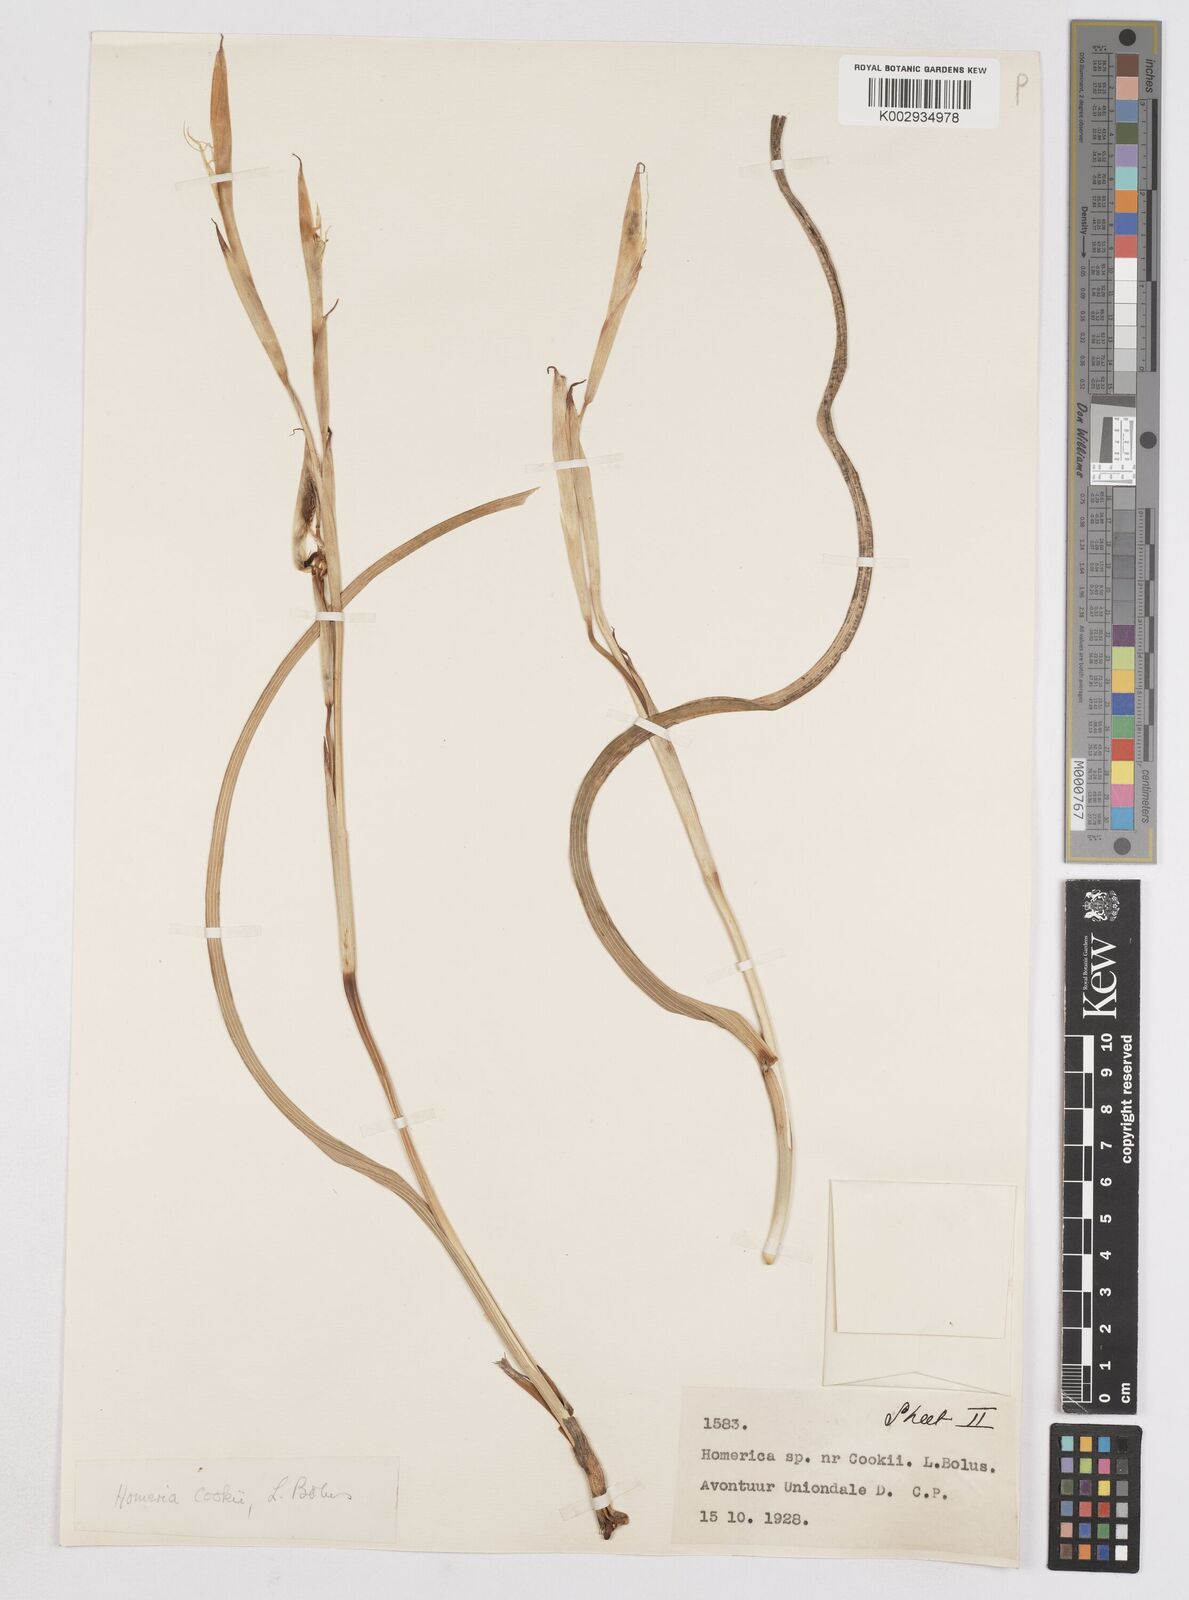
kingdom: Plantae
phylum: Tracheophyta
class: Liliopsida
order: Asparagales
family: Iridaceae
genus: Moraea
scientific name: Moraea cookii
